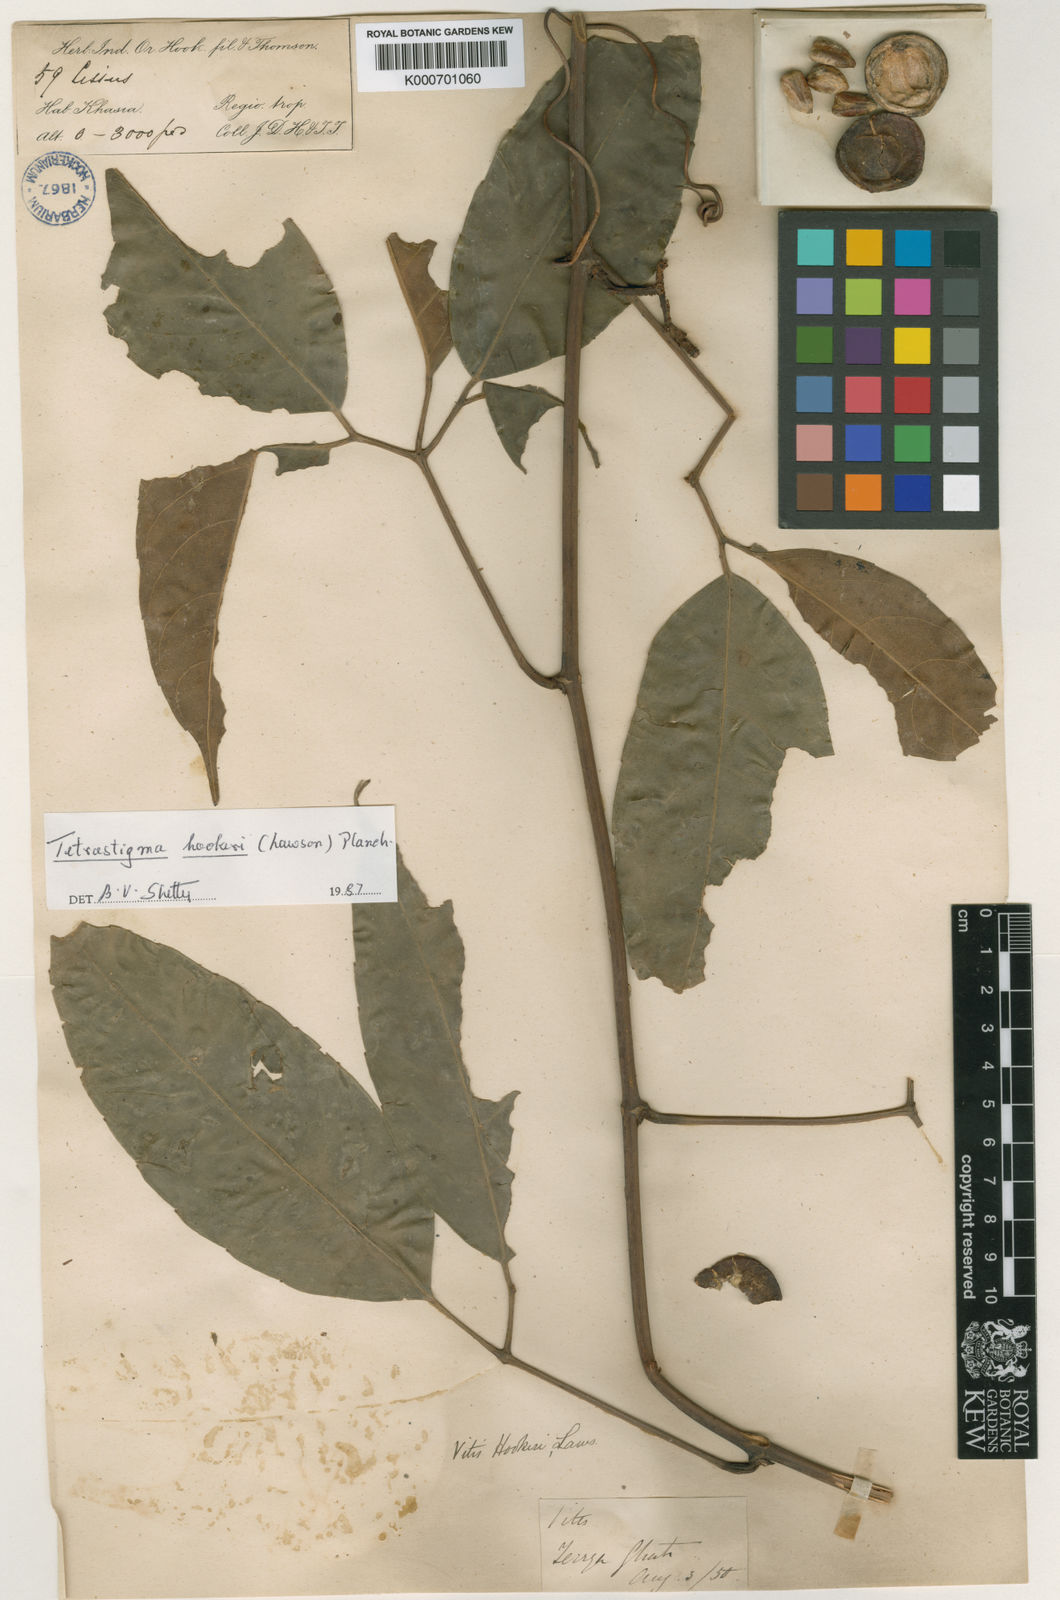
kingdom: Plantae
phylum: Tracheophyta
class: Magnoliopsida
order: Vitales
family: Vitaceae
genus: Tetrastigma
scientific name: Tetrastigma hookeri
